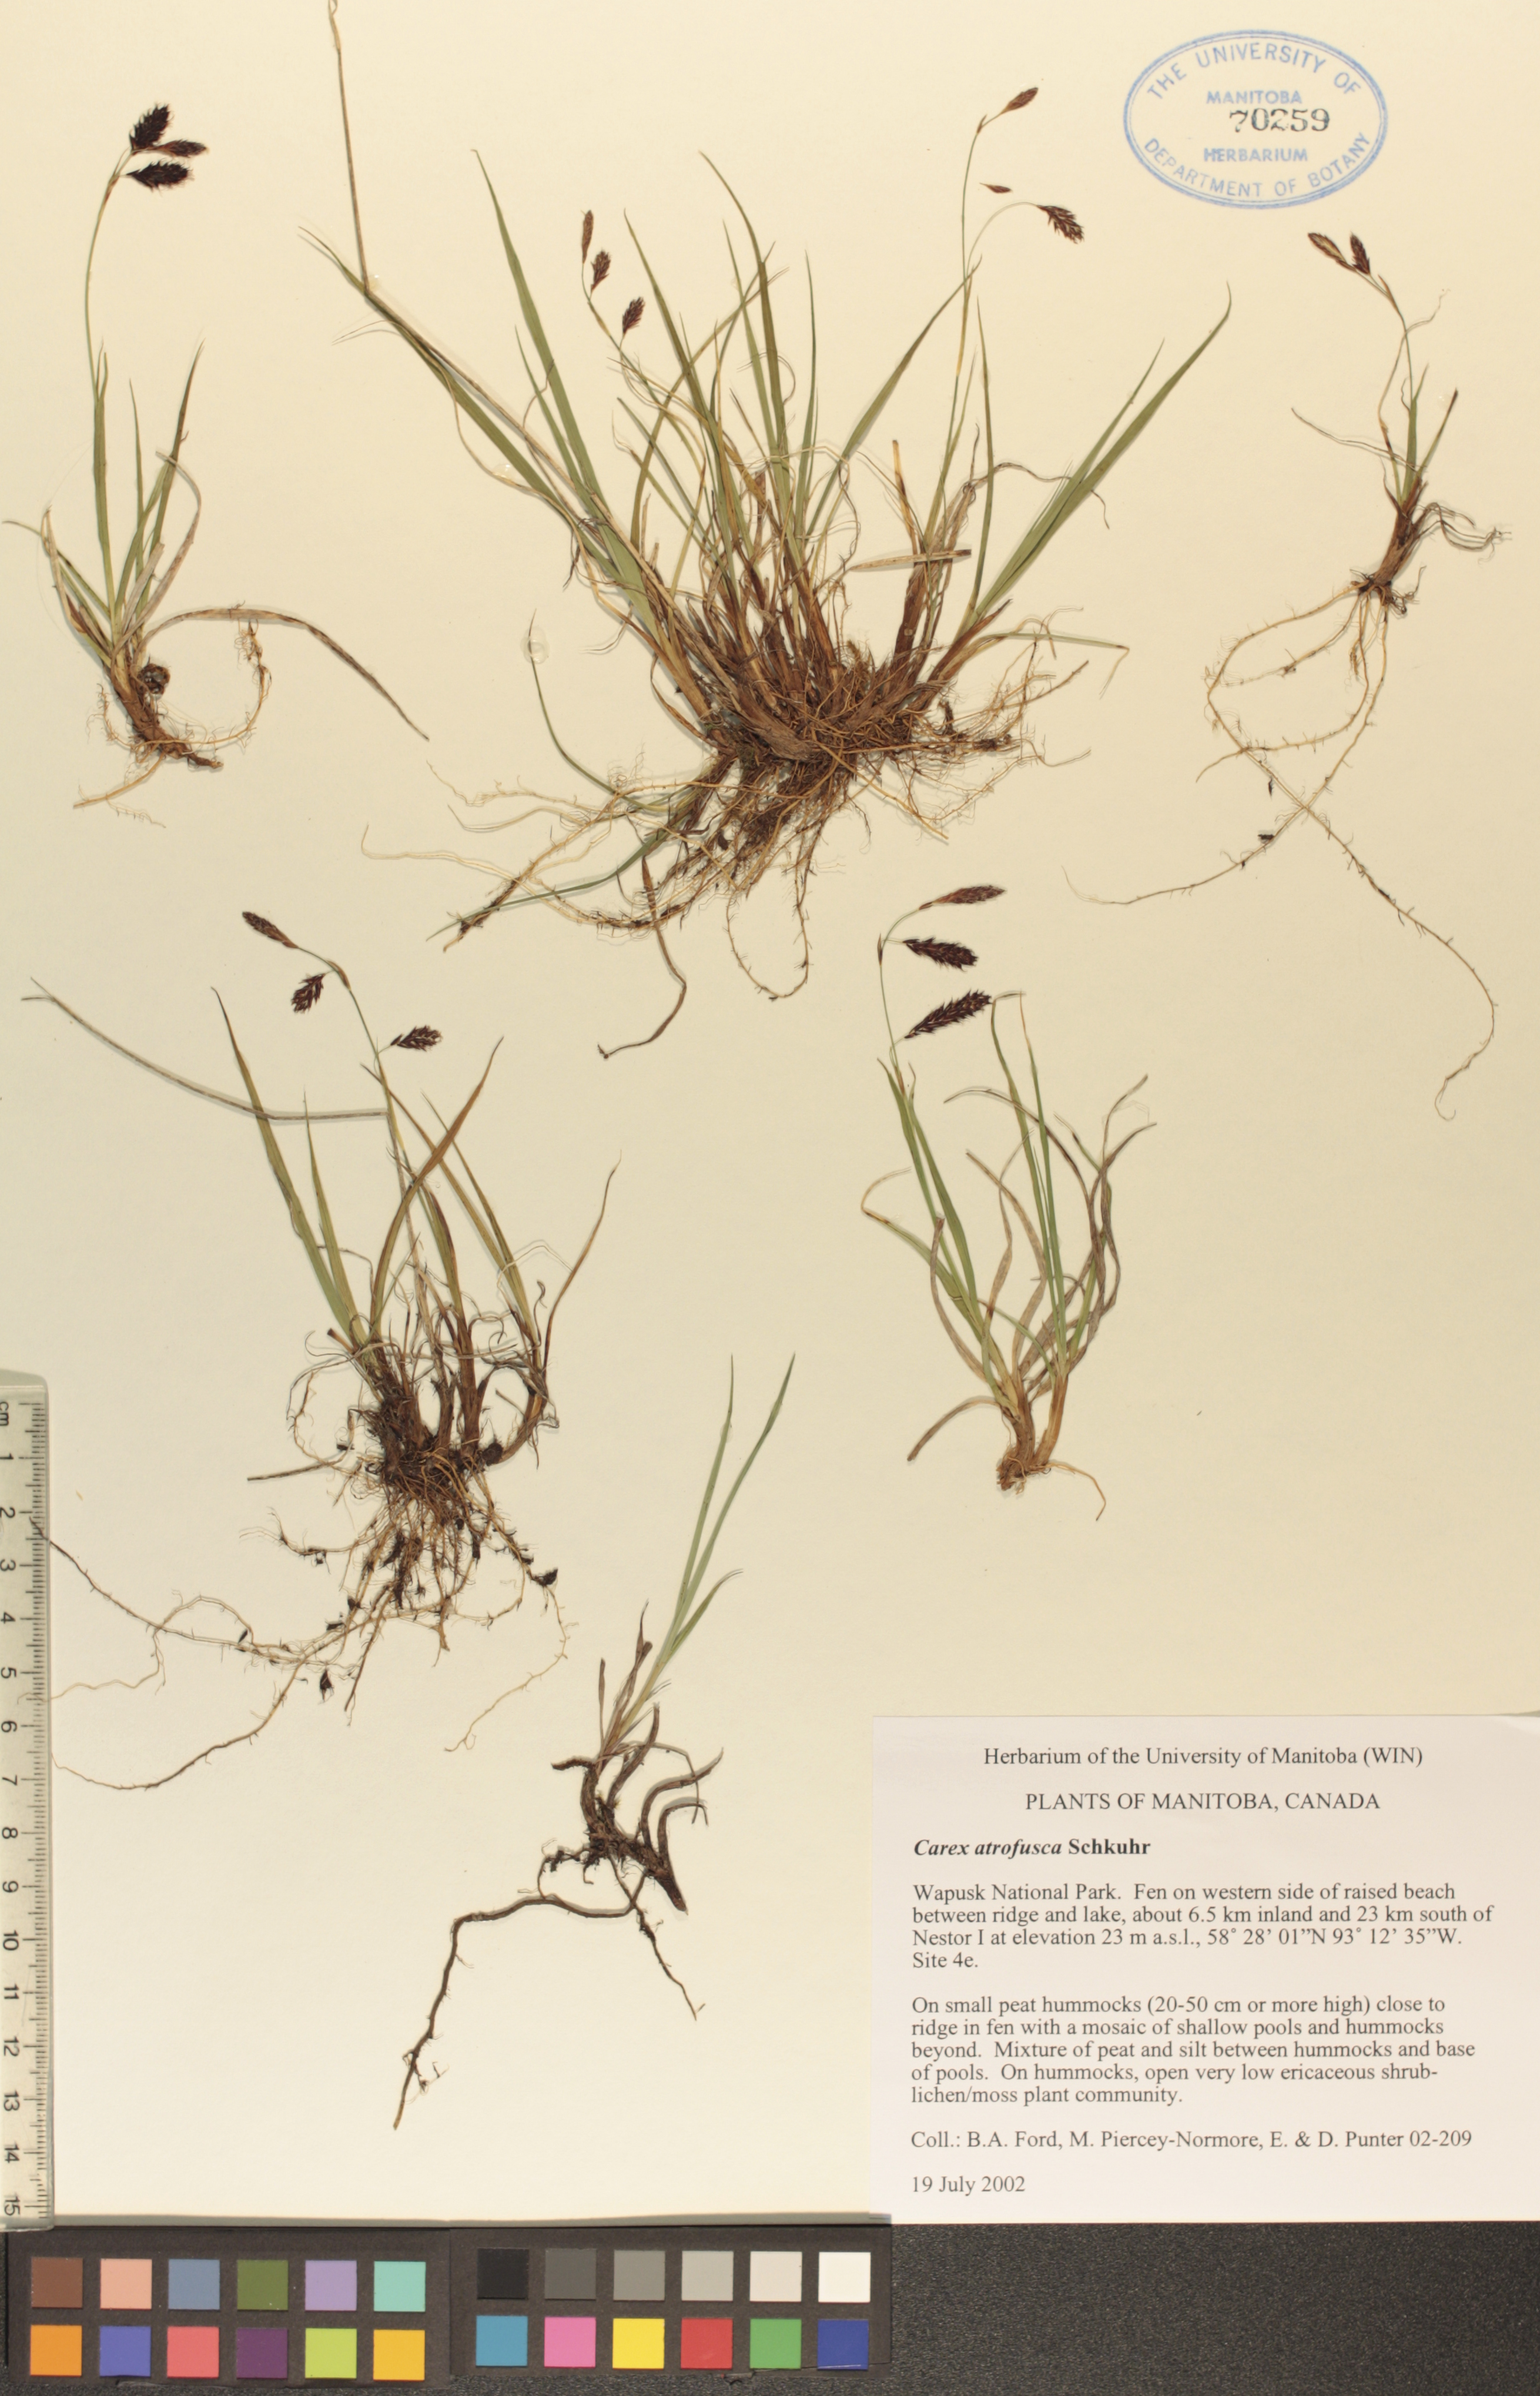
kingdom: Plantae
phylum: Tracheophyta
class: Liliopsida
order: Poales
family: Cyperaceae
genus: Carex
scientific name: Carex pichinchensis
